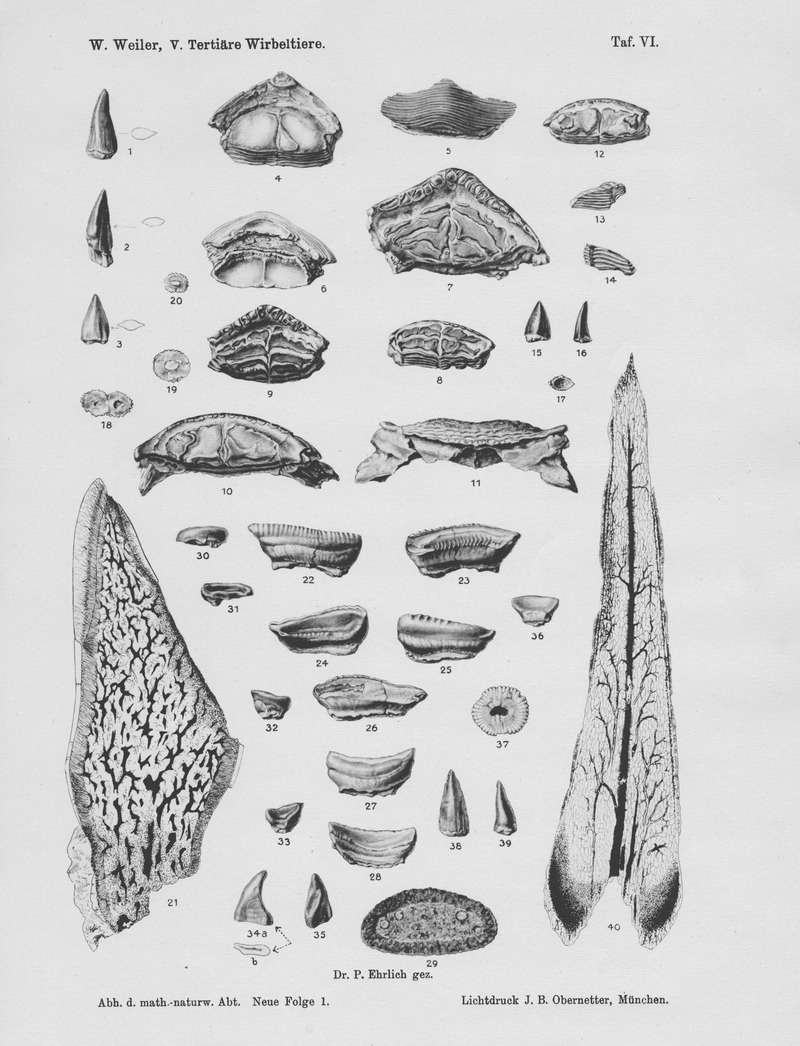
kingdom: Animalia
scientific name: Animalia
